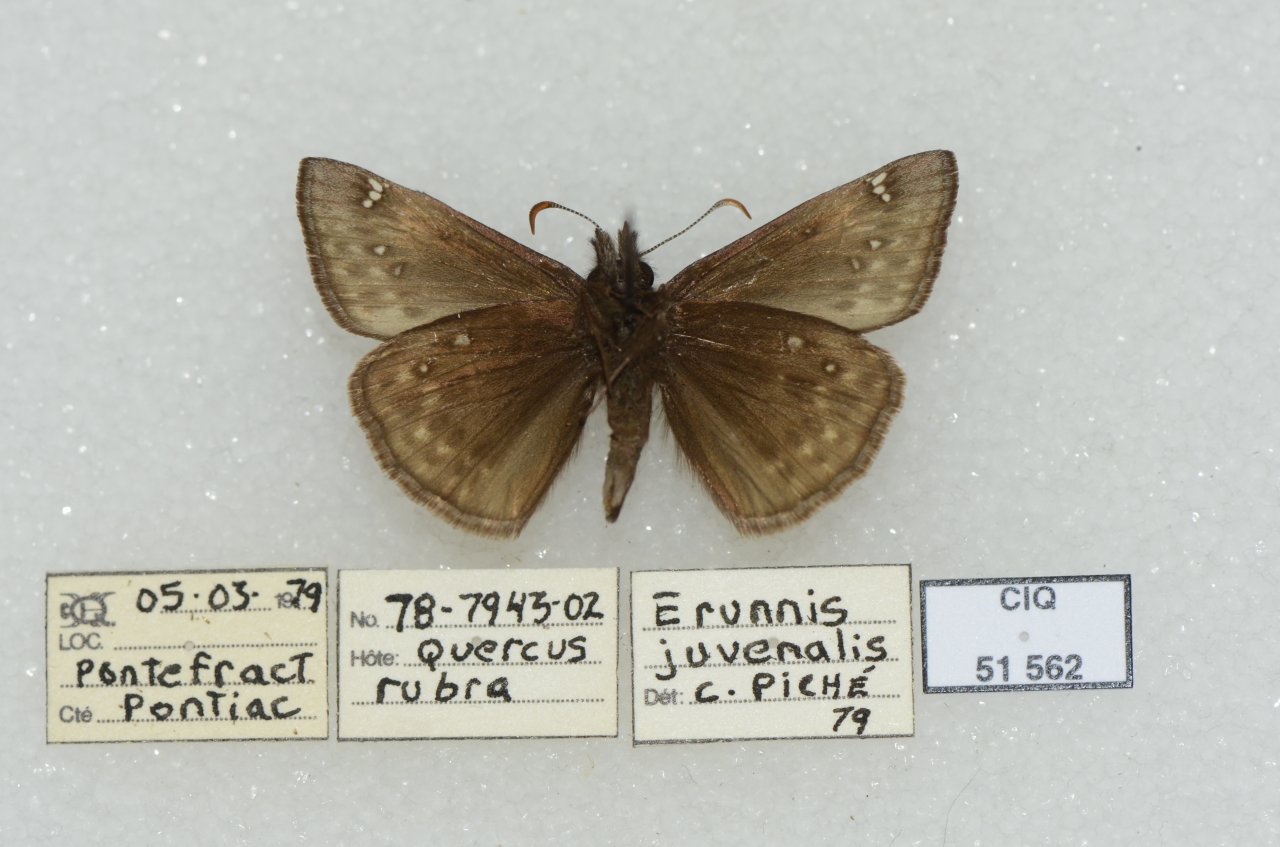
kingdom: Animalia
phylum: Arthropoda
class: Insecta
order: Lepidoptera
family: Hesperiidae
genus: Gesta
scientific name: Gesta
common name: Juvenal's Duskywing
